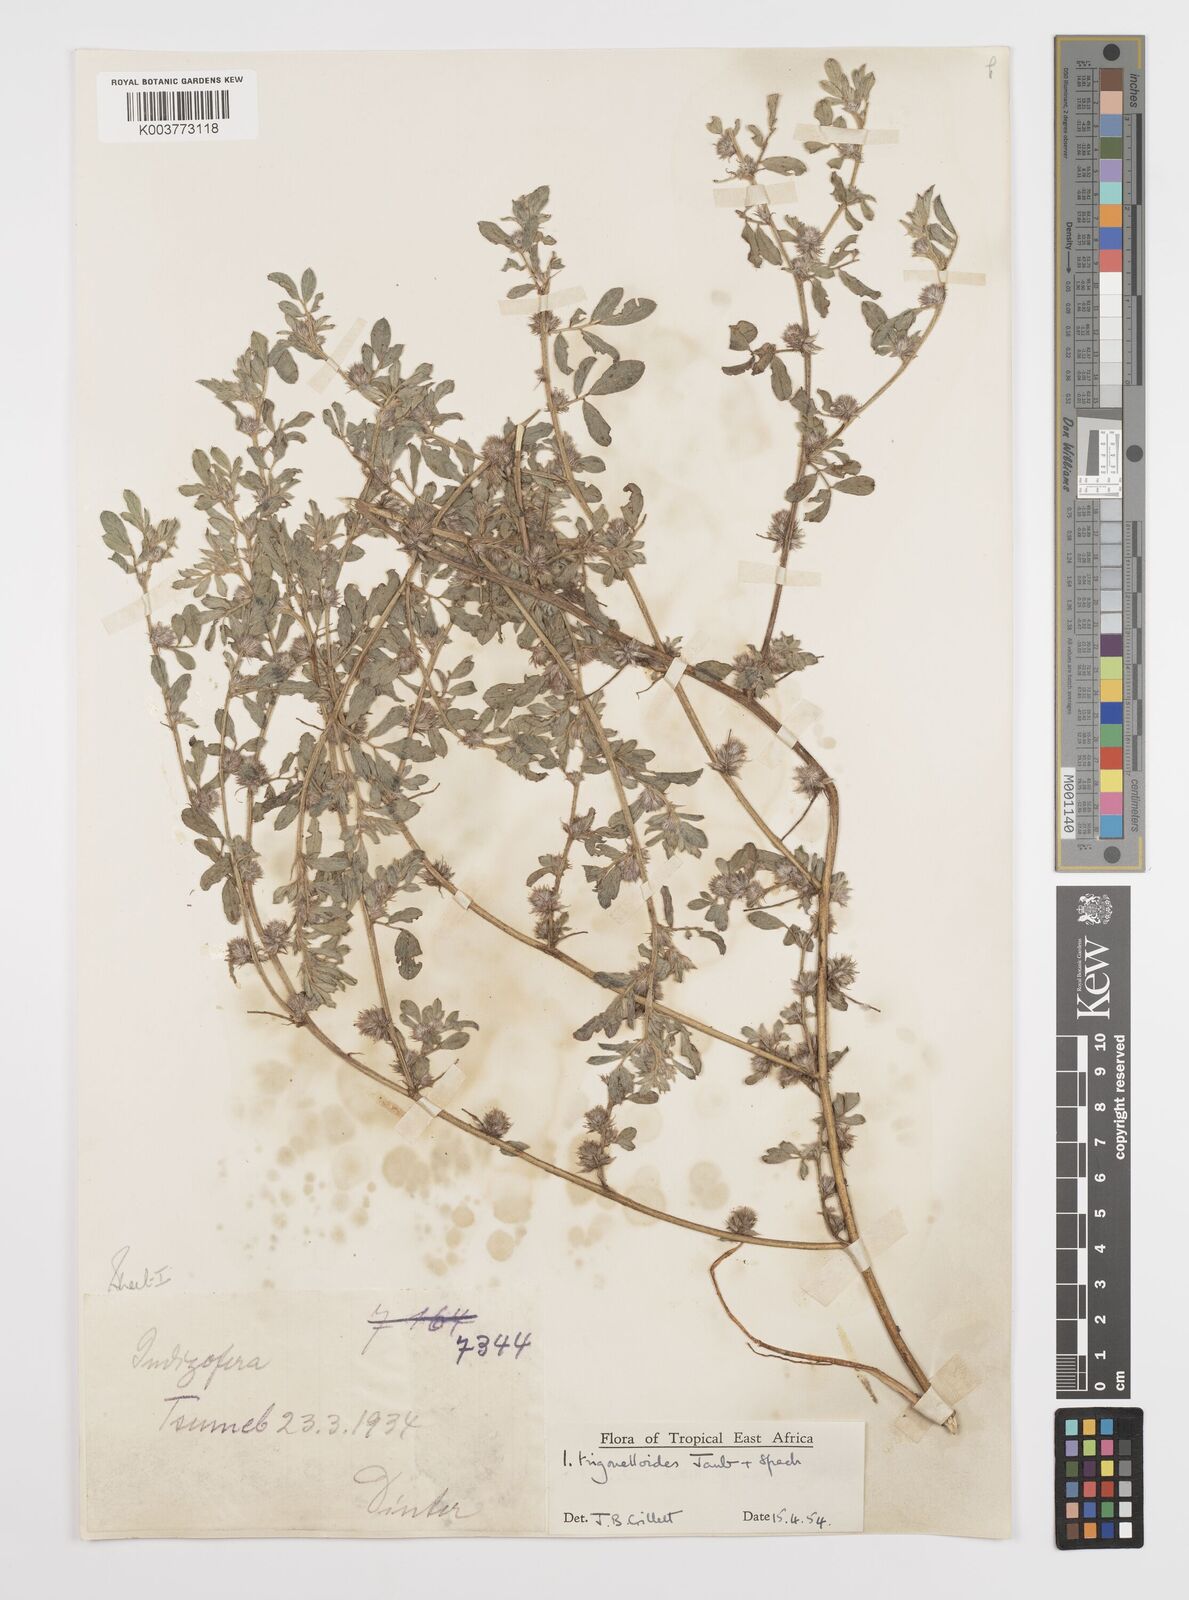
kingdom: Plantae
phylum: Tracheophyta
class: Magnoliopsida
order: Fabales
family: Fabaceae
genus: Indigofera
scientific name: Indigofera trigonelloides
